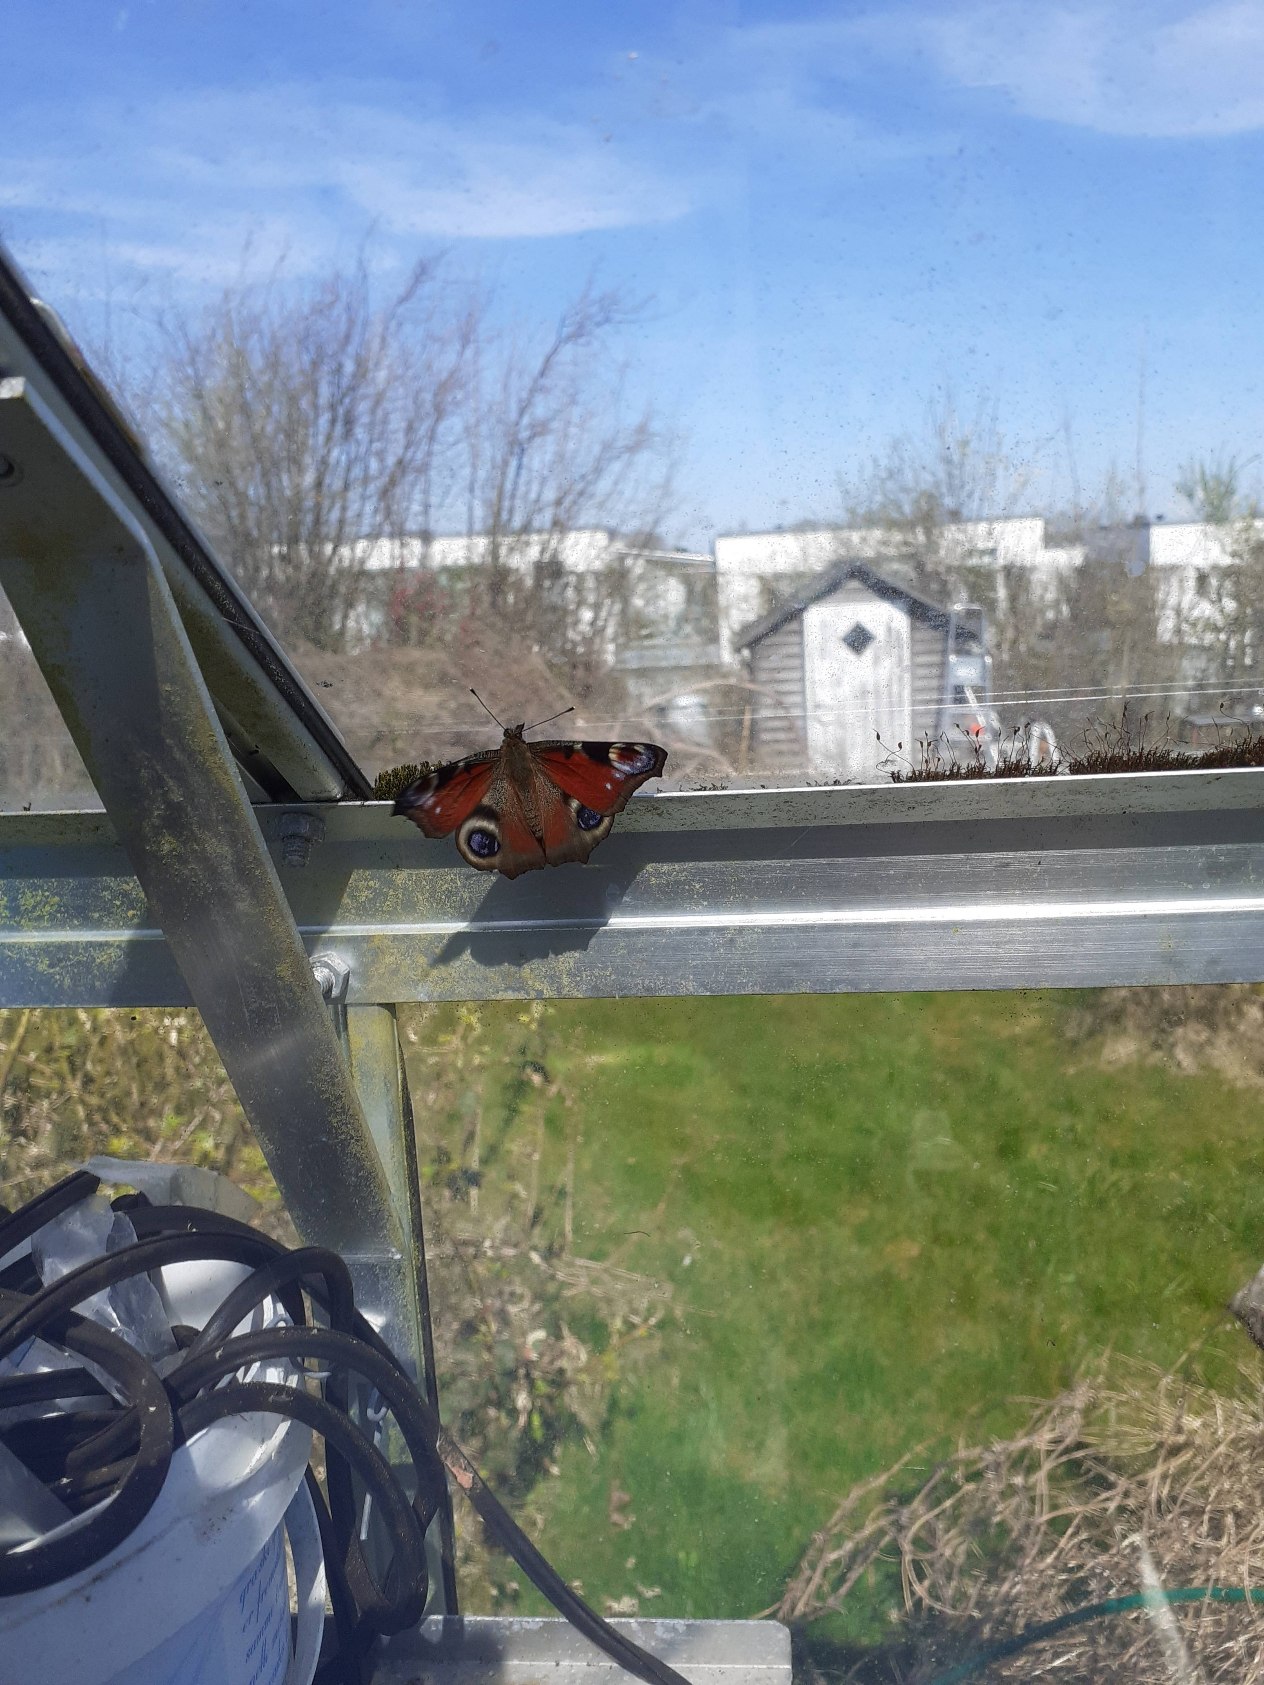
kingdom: Animalia
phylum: Arthropoda
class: Insecta
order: Lepidoptera
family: Nymphalidae
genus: Aglais
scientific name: Aglais io
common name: Dagpåfugleøje
